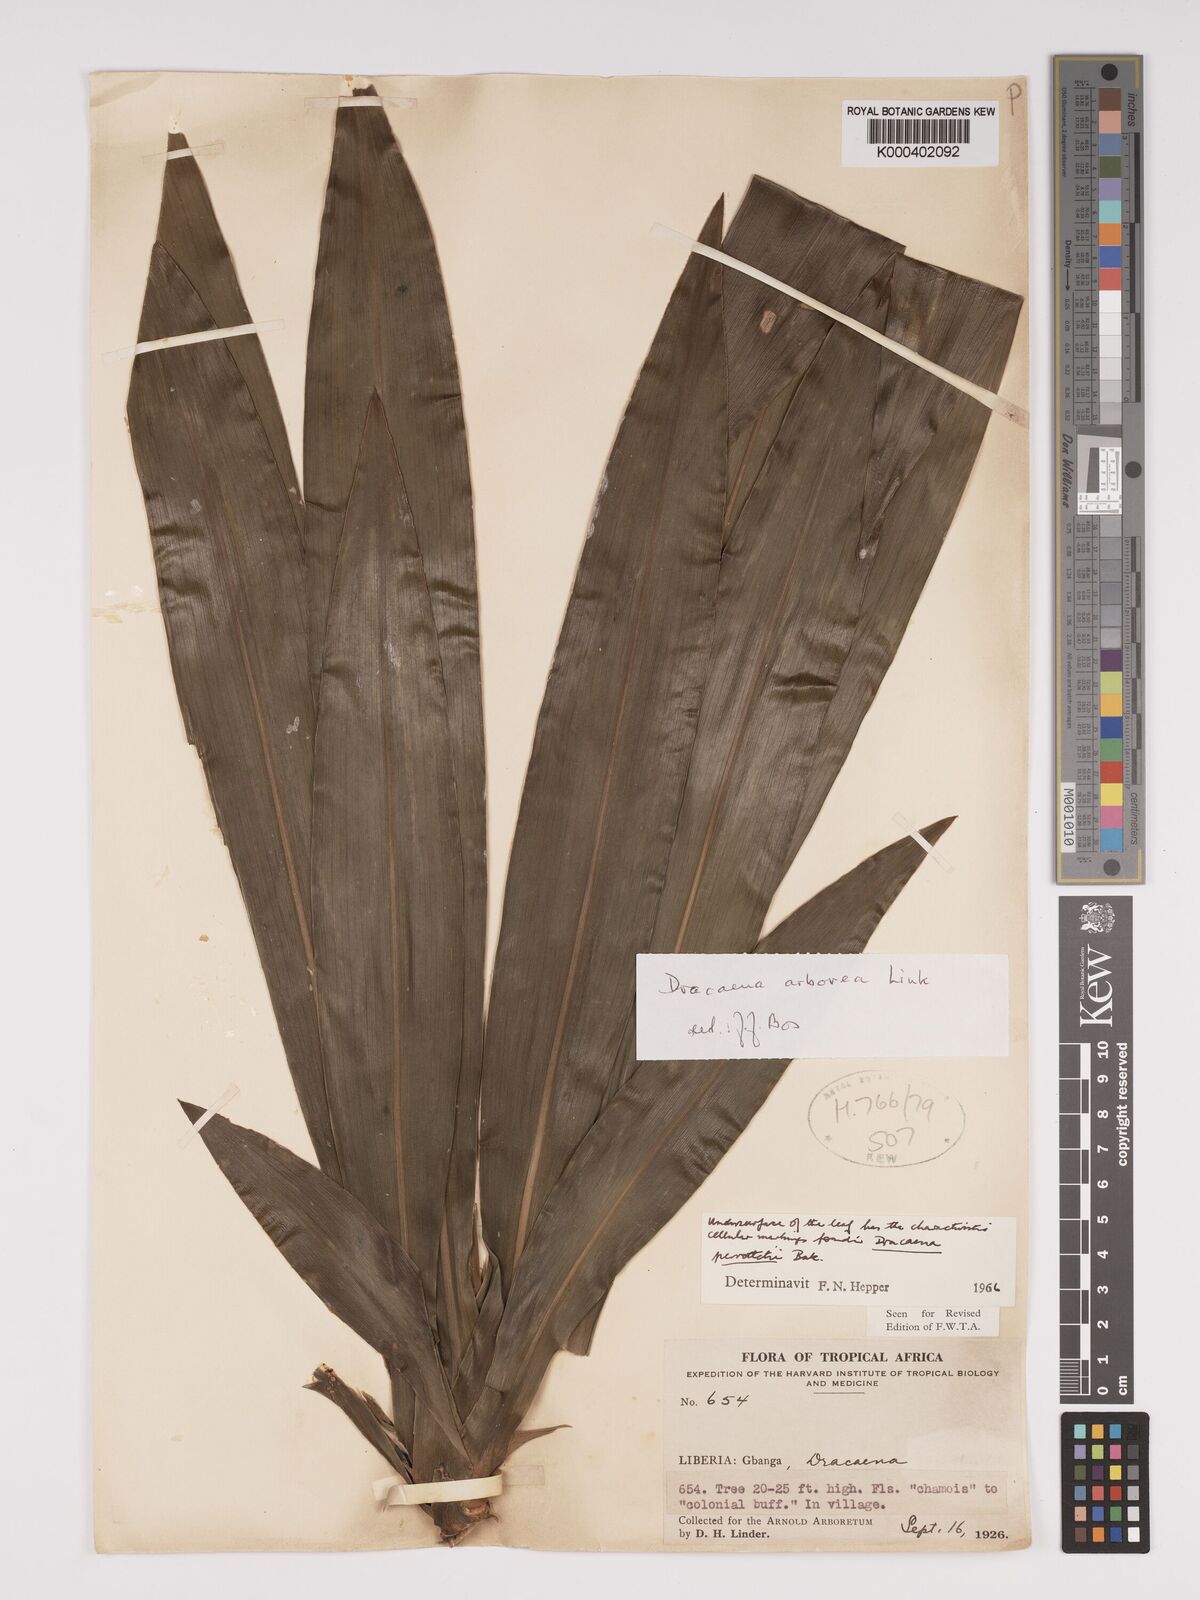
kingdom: Plantae
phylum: Tracheophyta
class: Liliopsida
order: Asparagales
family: Asparagaceae
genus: Dracaena
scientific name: Dracaena arborea
